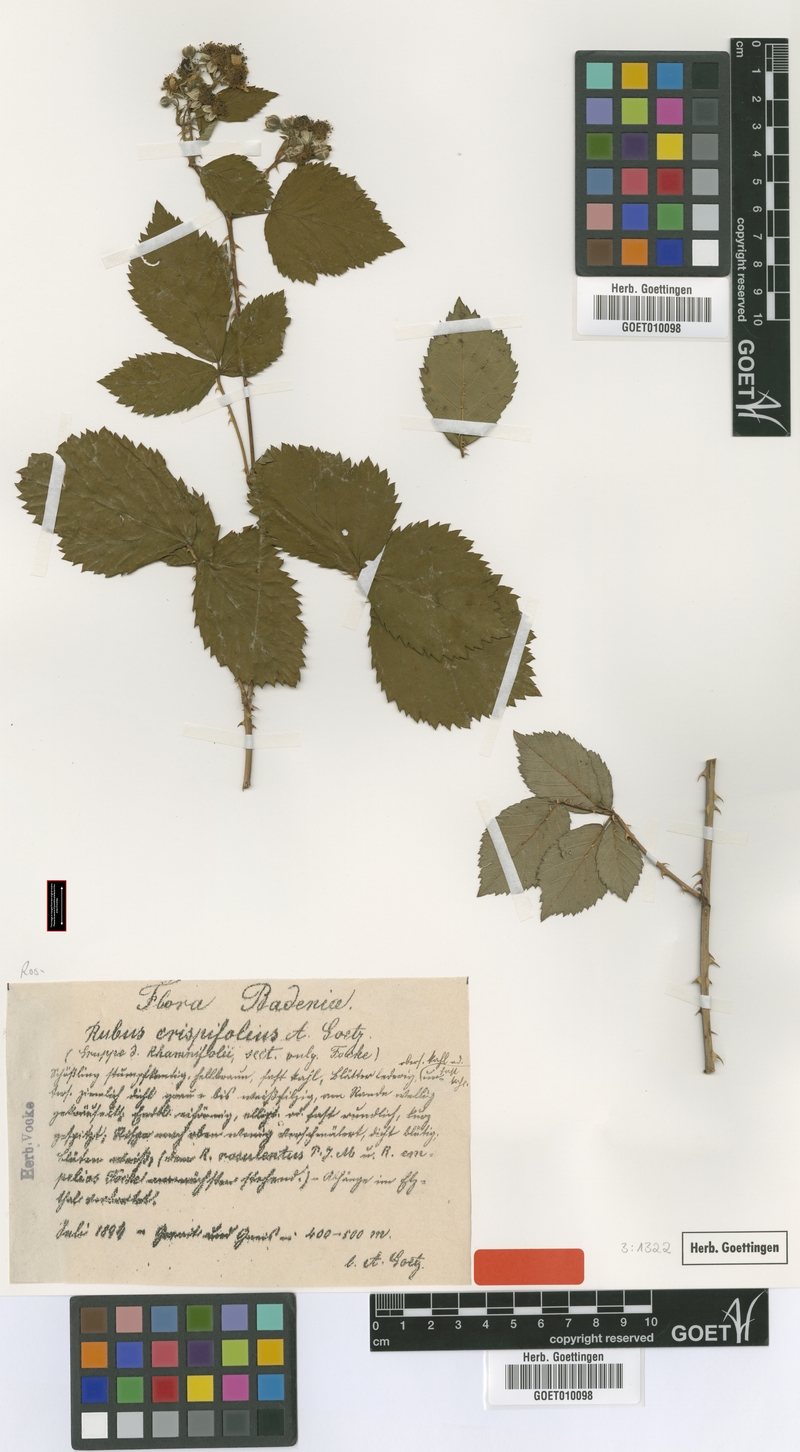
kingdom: Plantae
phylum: Tracheophyta
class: Magnoliopsida
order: Rosales
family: Rosaceae
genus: Rubus
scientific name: Rubus crispifolius
